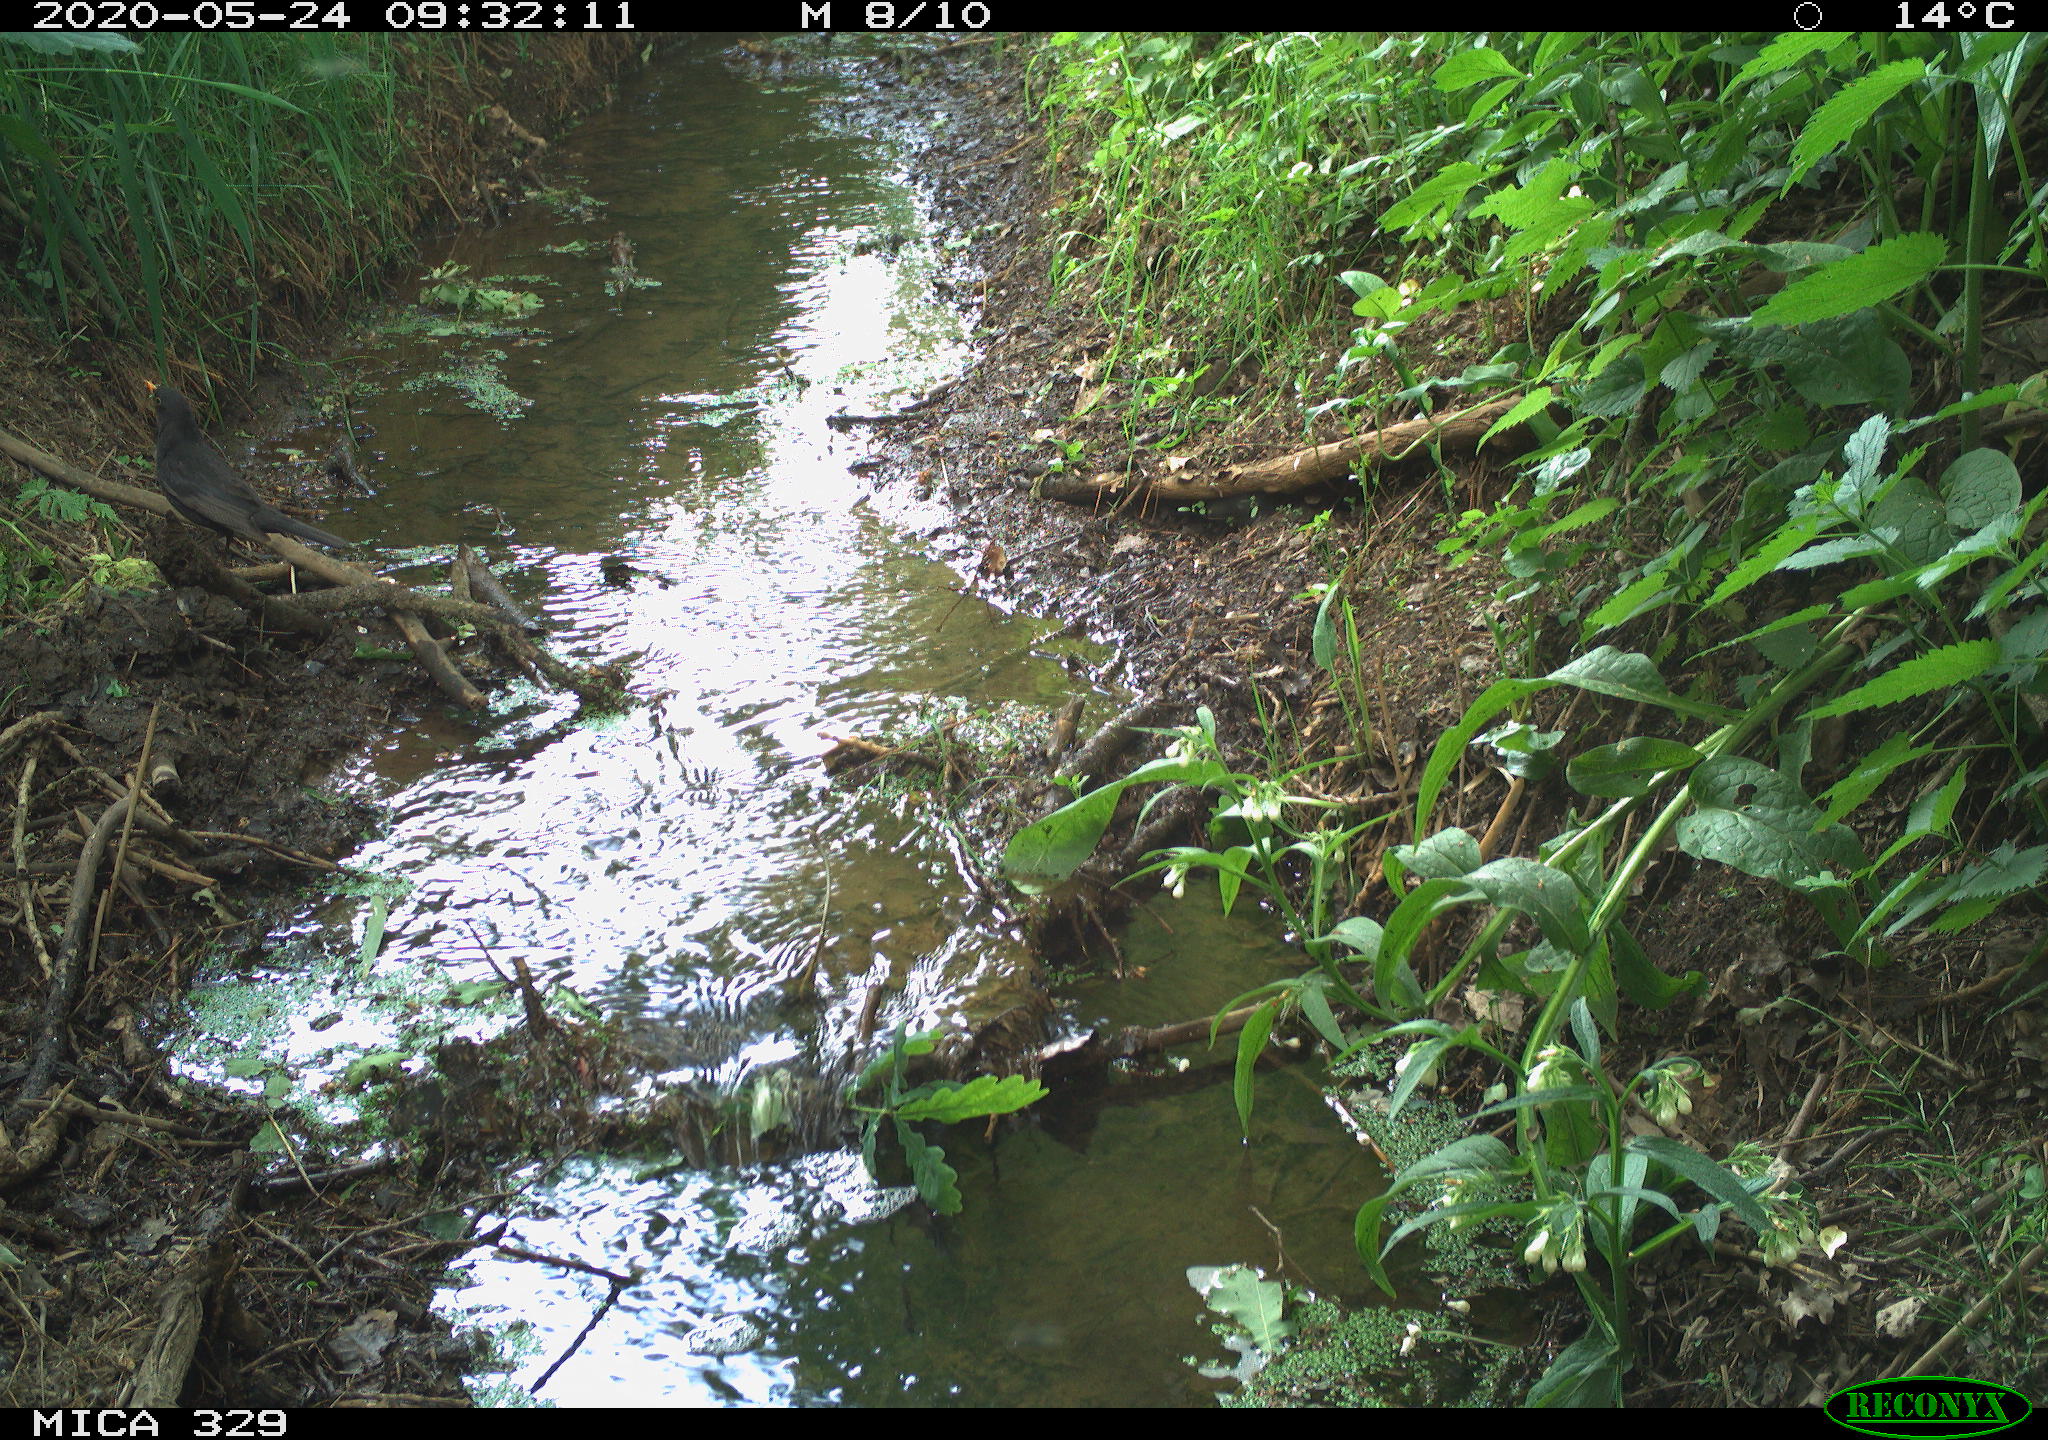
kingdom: Animalia
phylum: Chordata
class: Aves
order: Passeriformes
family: Turdidae
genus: Turdus
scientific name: Turdus merula
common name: Common blackbird
